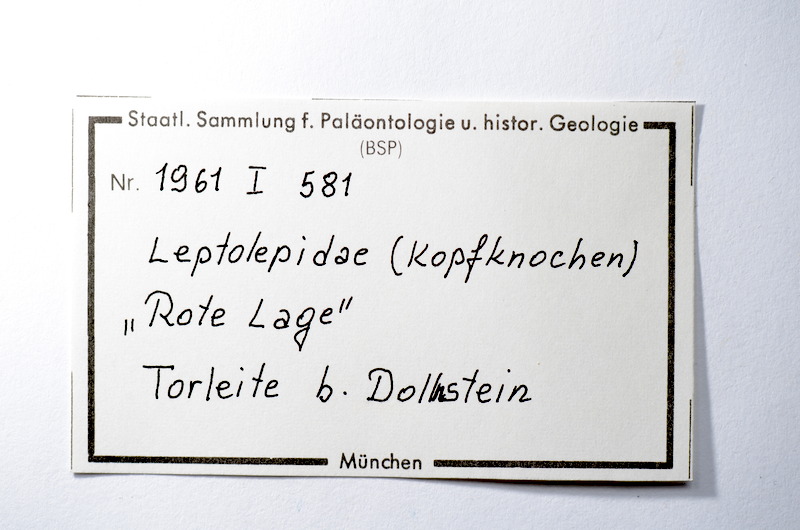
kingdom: Animalia
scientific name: Animalia
